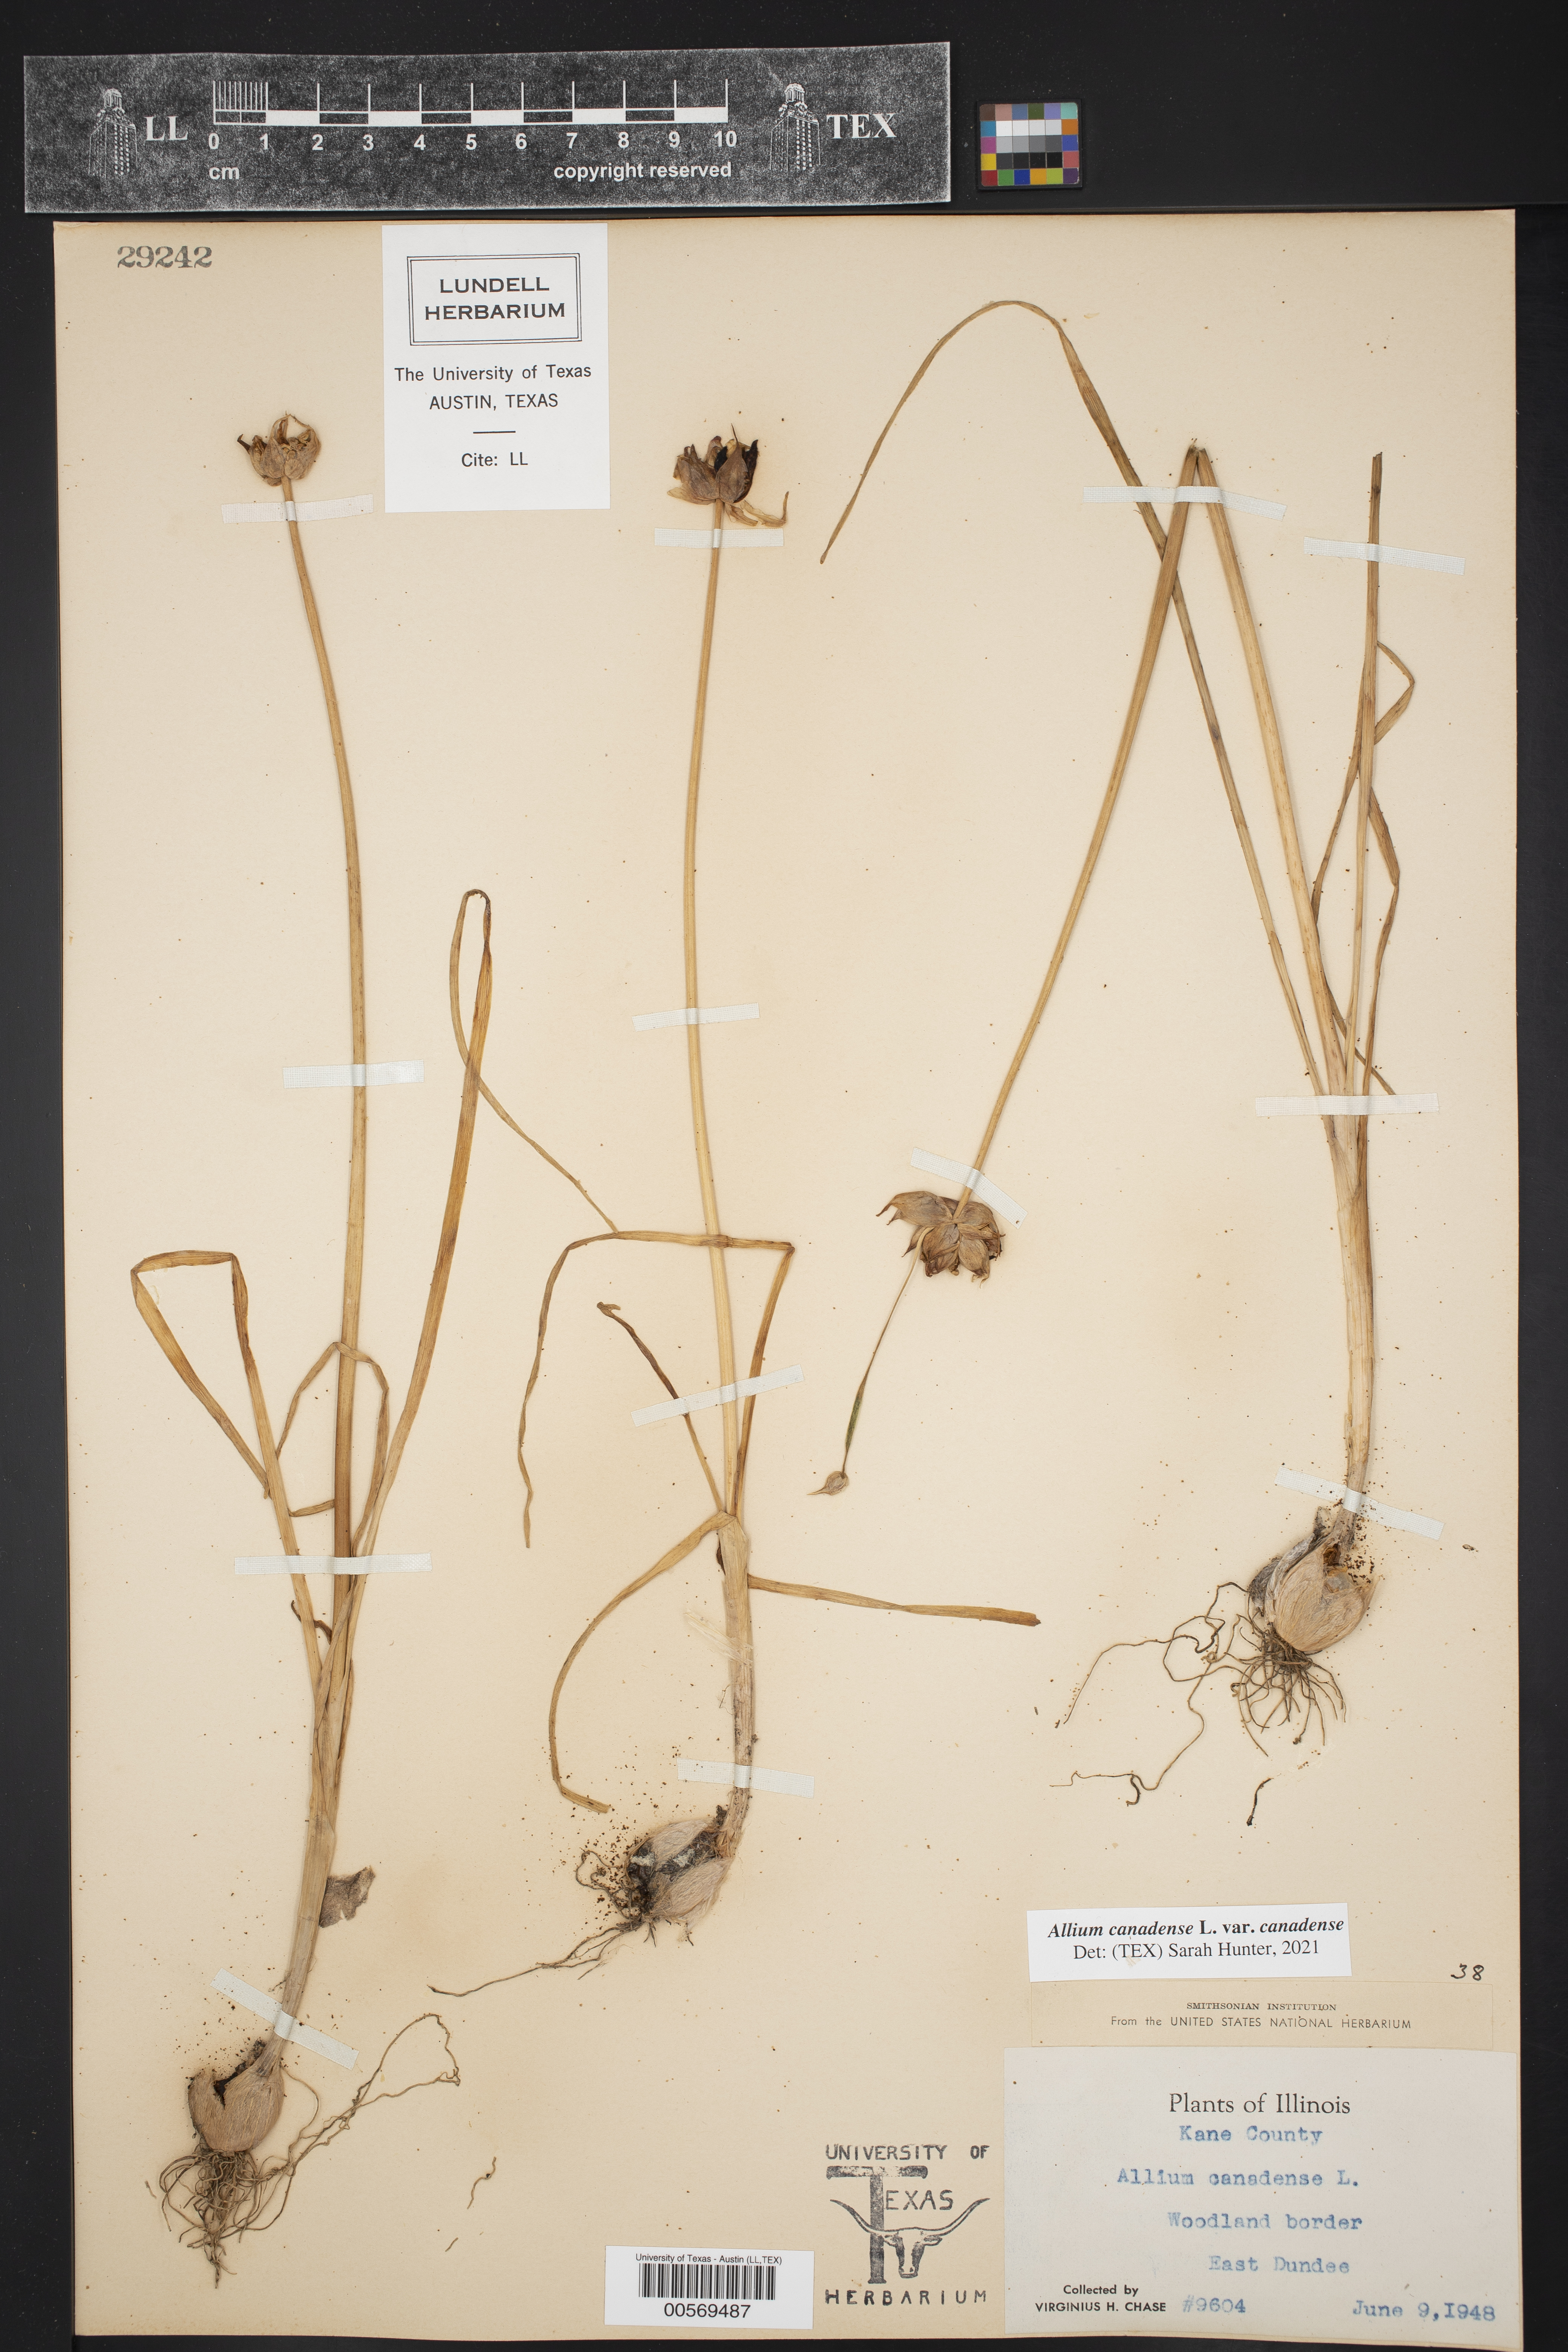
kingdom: Plantae
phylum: Tracheophyta
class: Liliopsida
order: Asparagales
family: Amaryllidaceae
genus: Allium
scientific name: Allium canadense
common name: Meadow garlic
